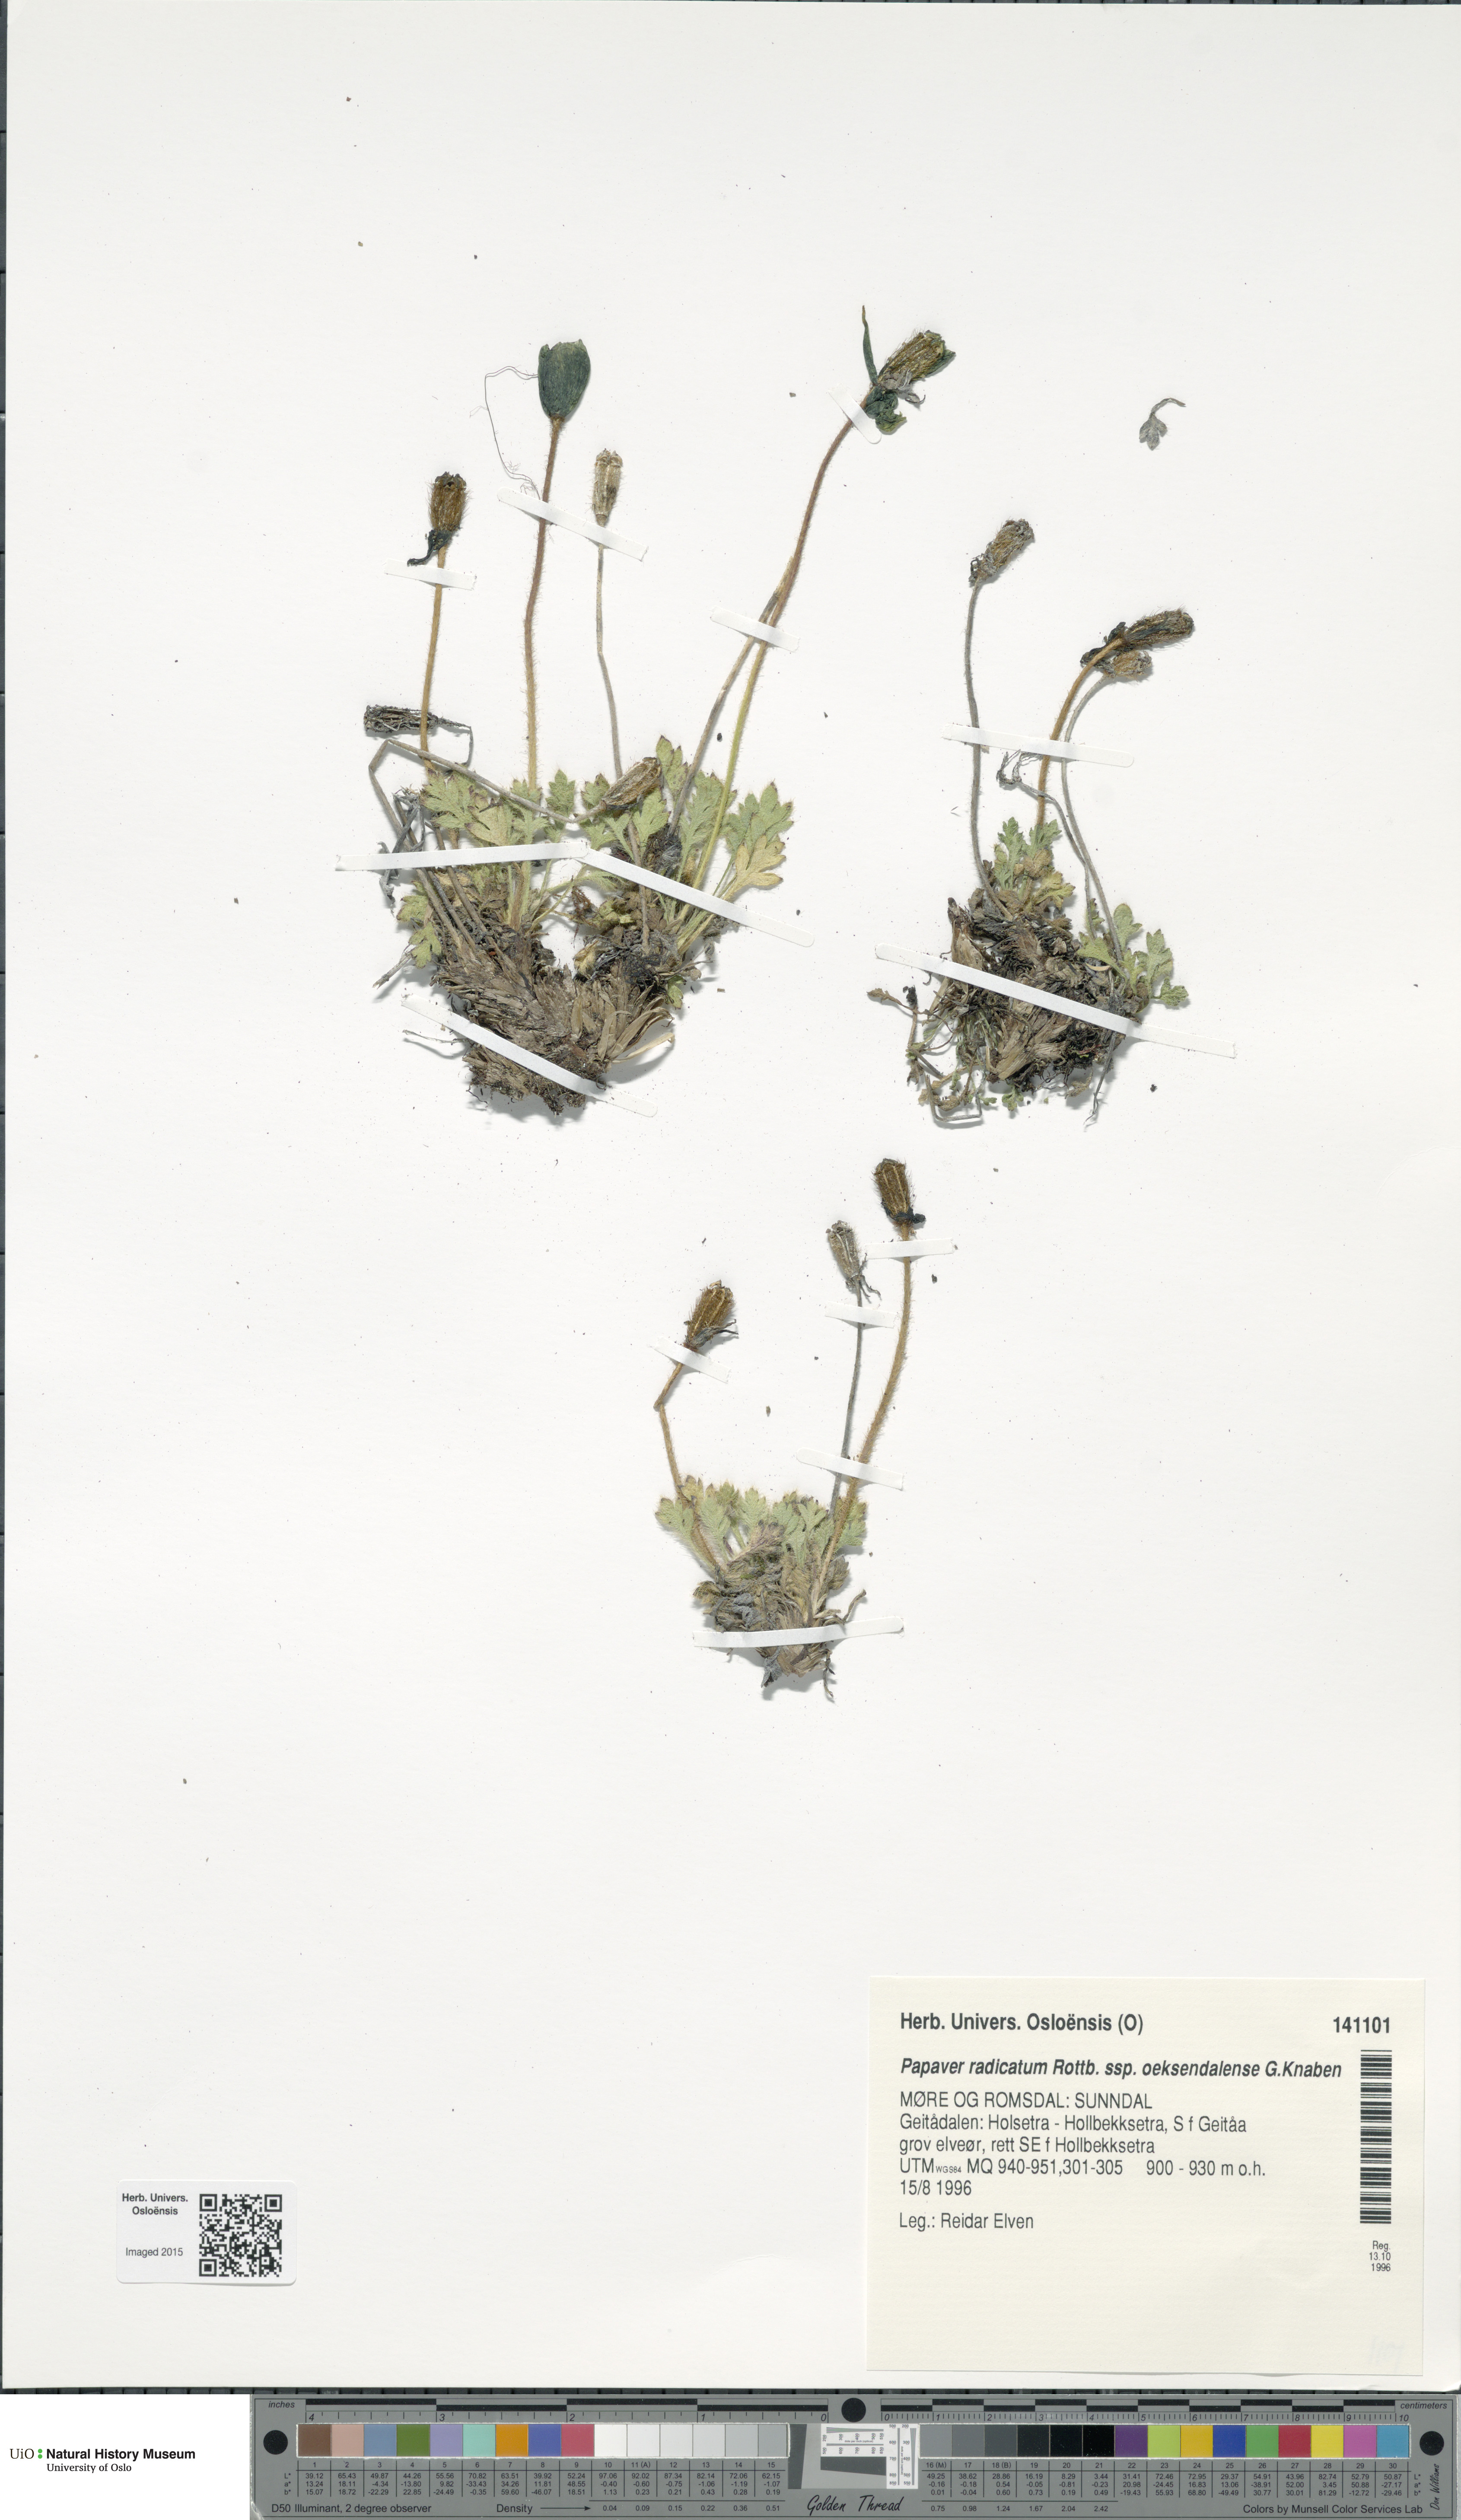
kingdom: Plantae
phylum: Tracheophyta
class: Magnoliopsida
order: Ranunculales
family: Papaveraceae
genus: Papaver
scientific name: Papaver radicatum
